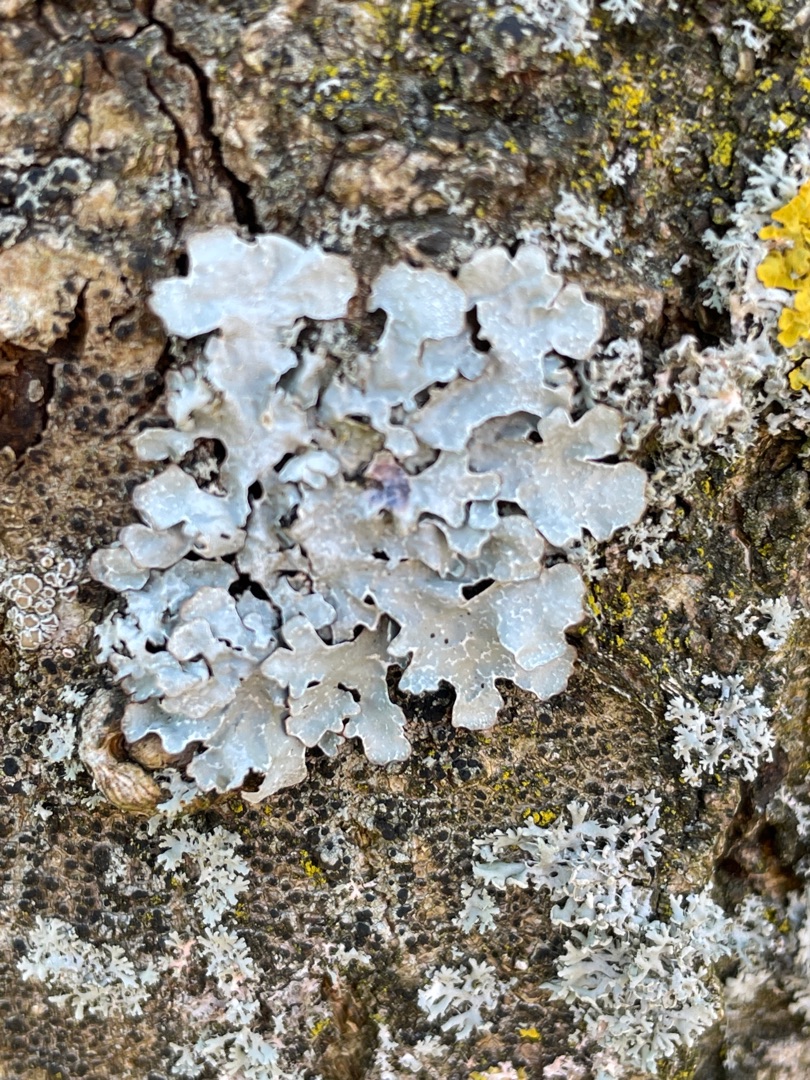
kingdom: Fungi
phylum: Ascomycota
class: Lecanoromycetes
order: Lecanorales
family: Parmeliaceae
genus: Parmelia
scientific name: Parmelia sulcata
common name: Rynket skållav
